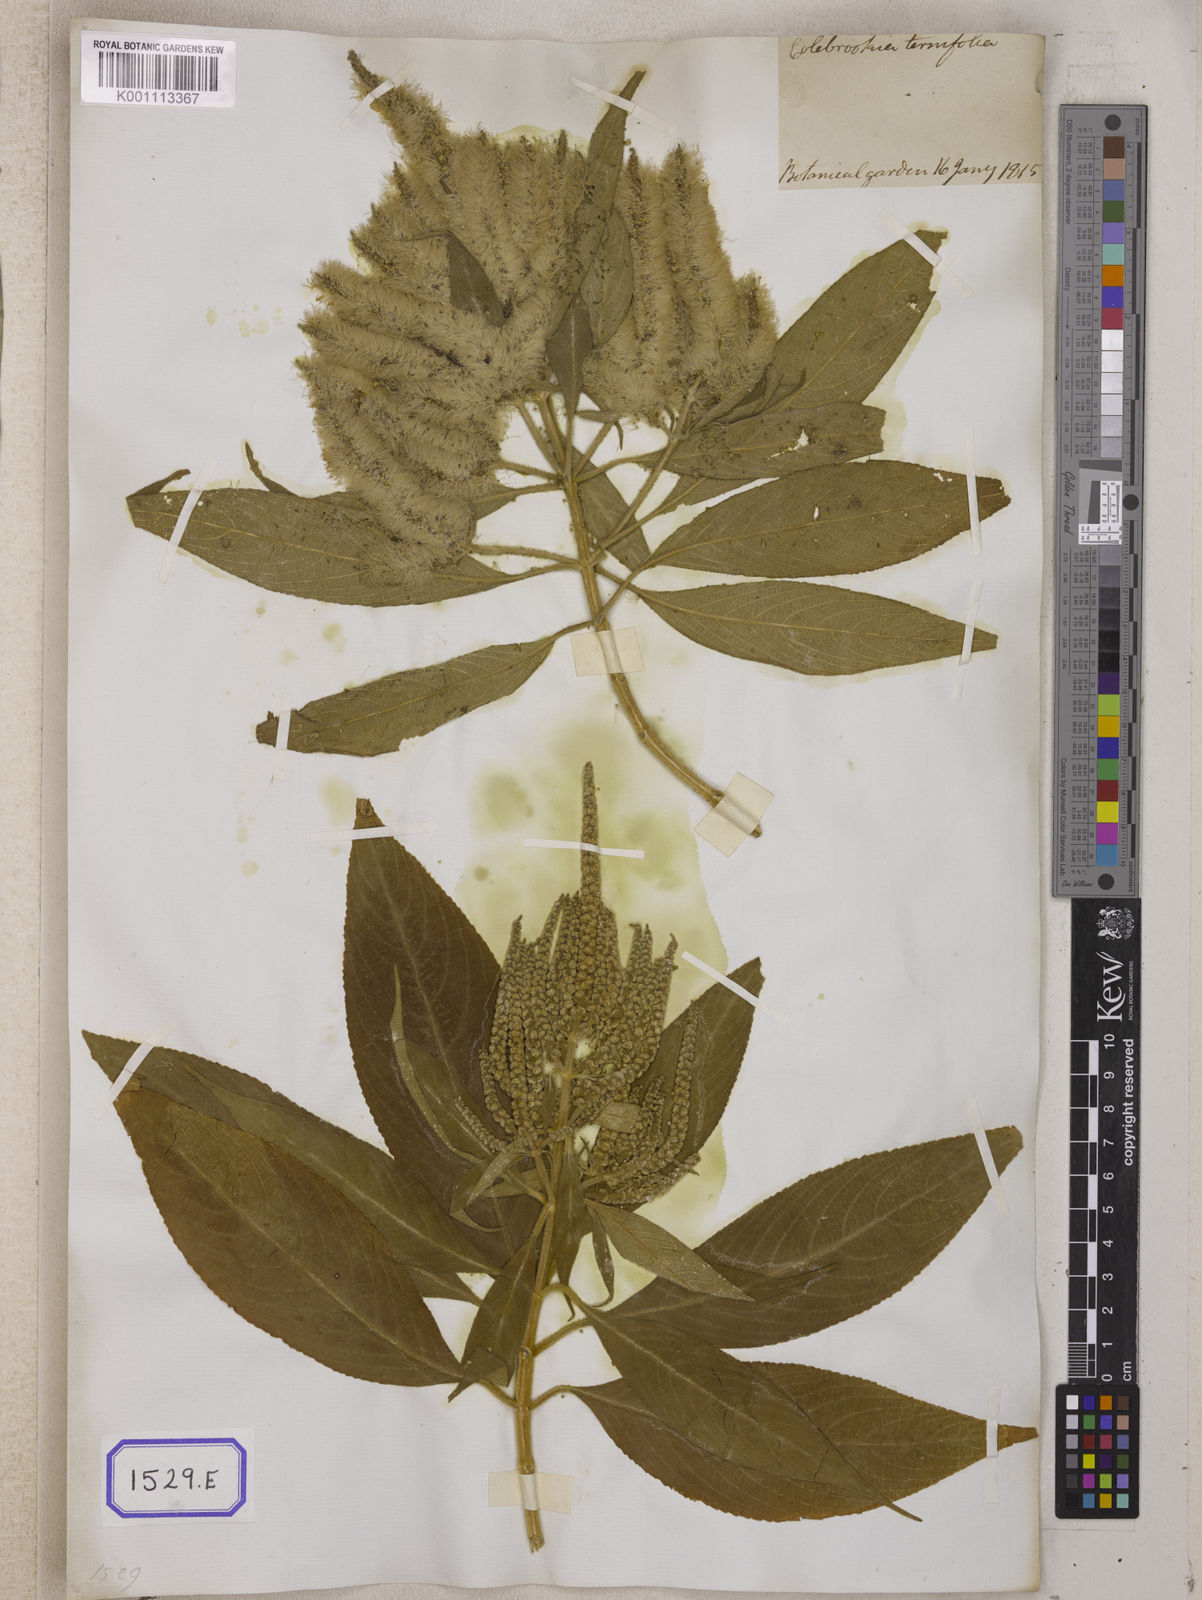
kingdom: Plantae
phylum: Tracheophyta
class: Magnoliopsida
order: Lamiales
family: Lamiaceae
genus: Colebrookea
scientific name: Colebrookea oppositifolia
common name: Indian squirrel tail
